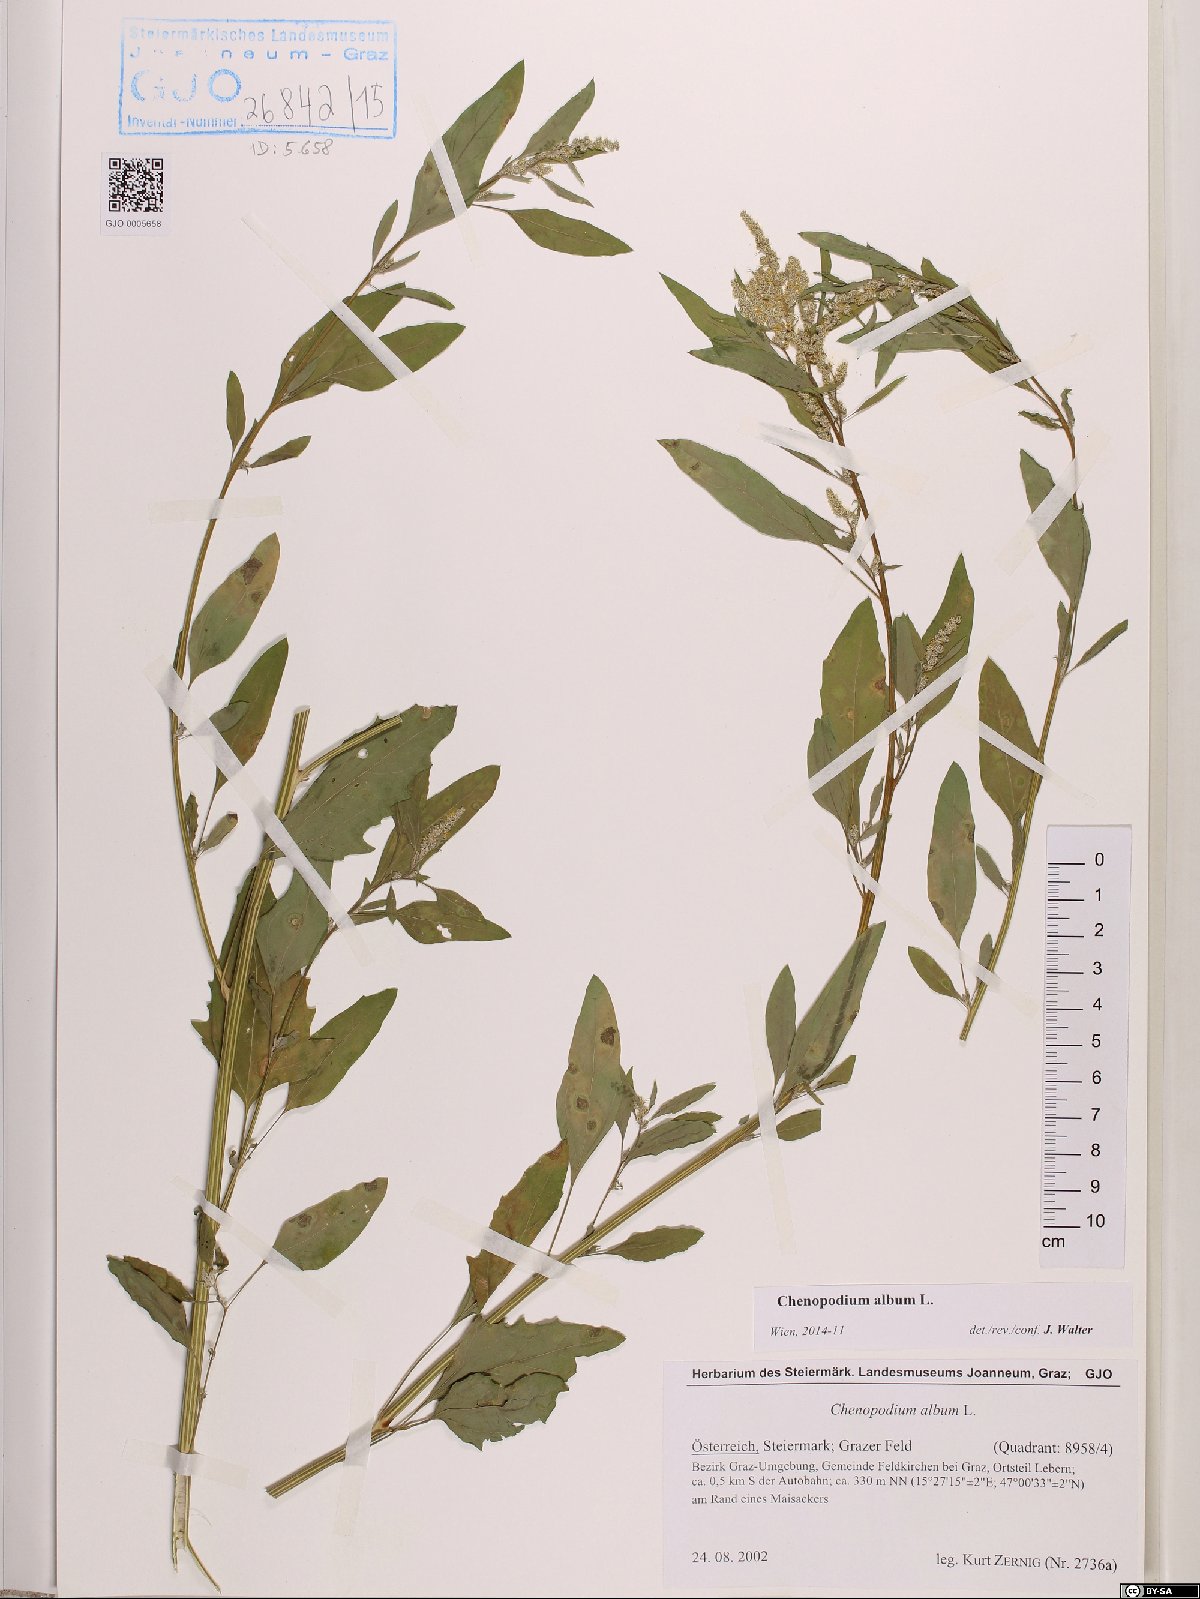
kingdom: Plantae
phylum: Tracheophyta
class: Magnoliopsida
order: Caryophyllales
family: Amaranthaceae
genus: Chenopodium
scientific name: Chenopodium album
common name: Fat-hen
